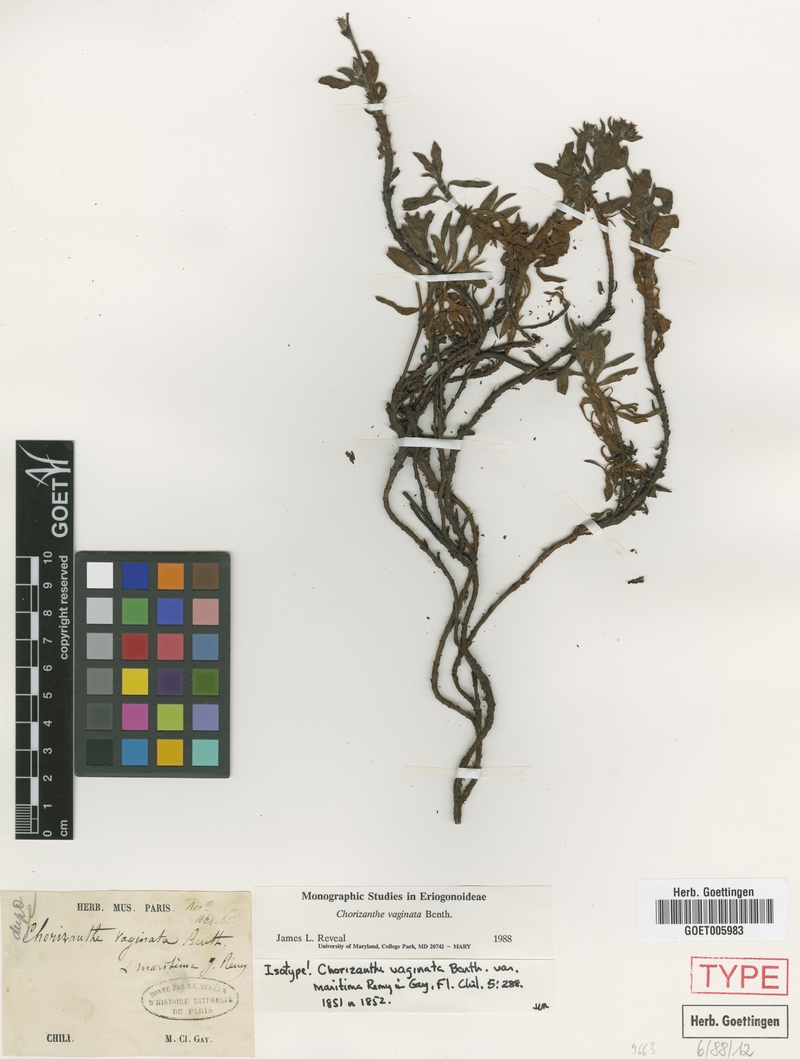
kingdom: Plantae
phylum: Tracheophyta
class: Magnoliopsida
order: Caryophyllales
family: Polygonaceae
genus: Chorizanthe
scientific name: Chorizanthe vaginata
